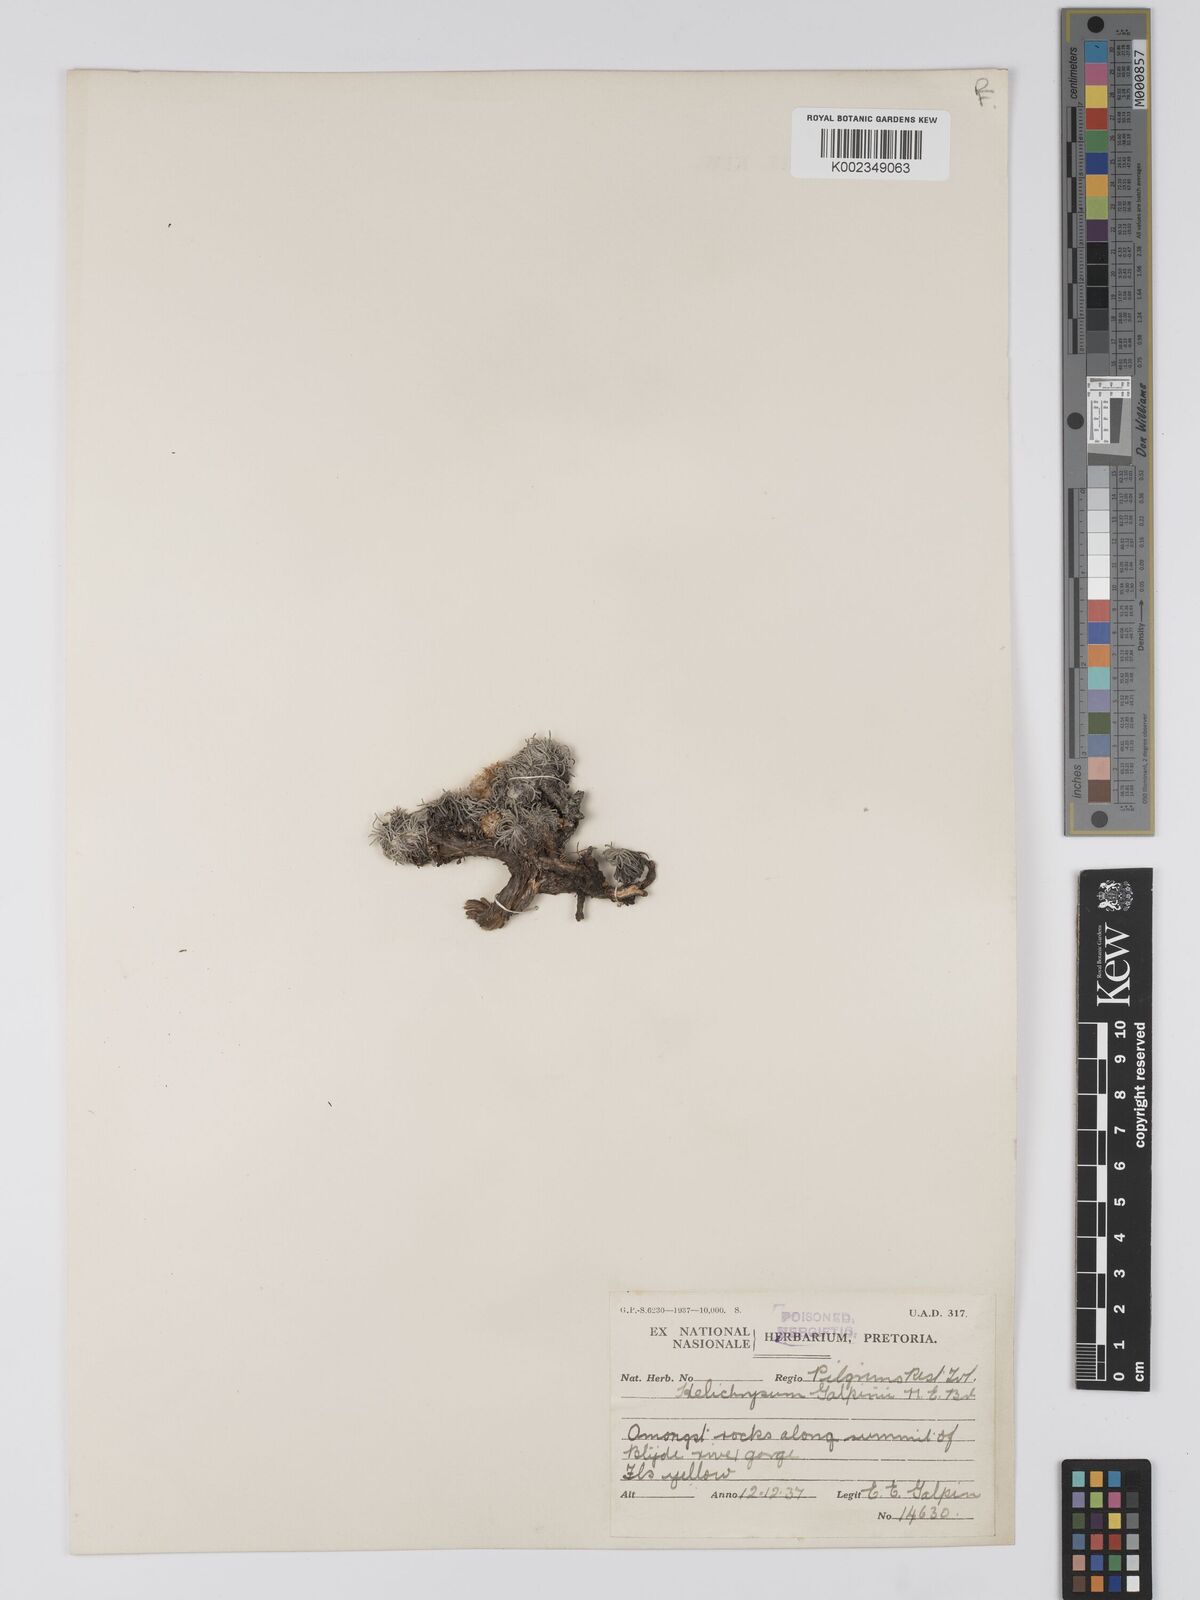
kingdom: Plantae
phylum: Tracheophyta
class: Magnoliopsida
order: Asterales
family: Asteraceae
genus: Helichrysum
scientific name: Helichrysum galpinii
